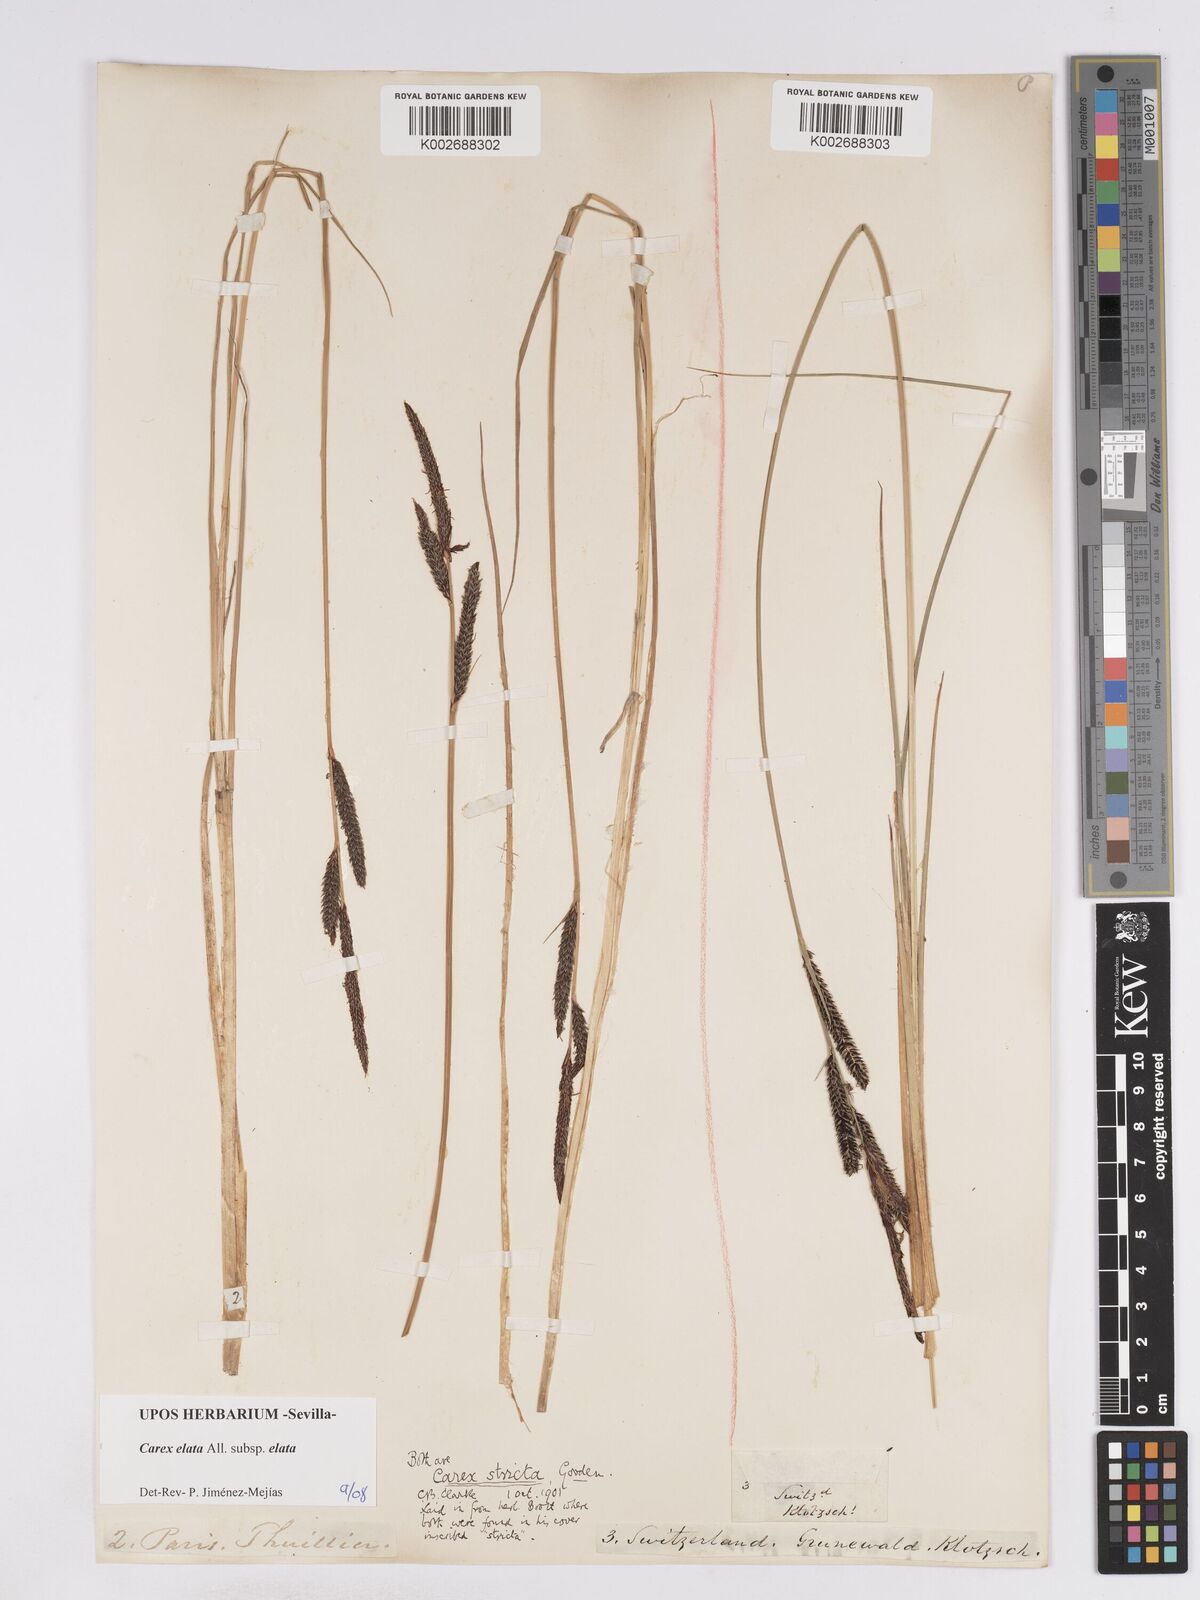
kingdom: Plantae
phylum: Tracheophyta
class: Liliopsida
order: Poales
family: Cyperaceae
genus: Carex
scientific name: Carex elata
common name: Tufted sedge
